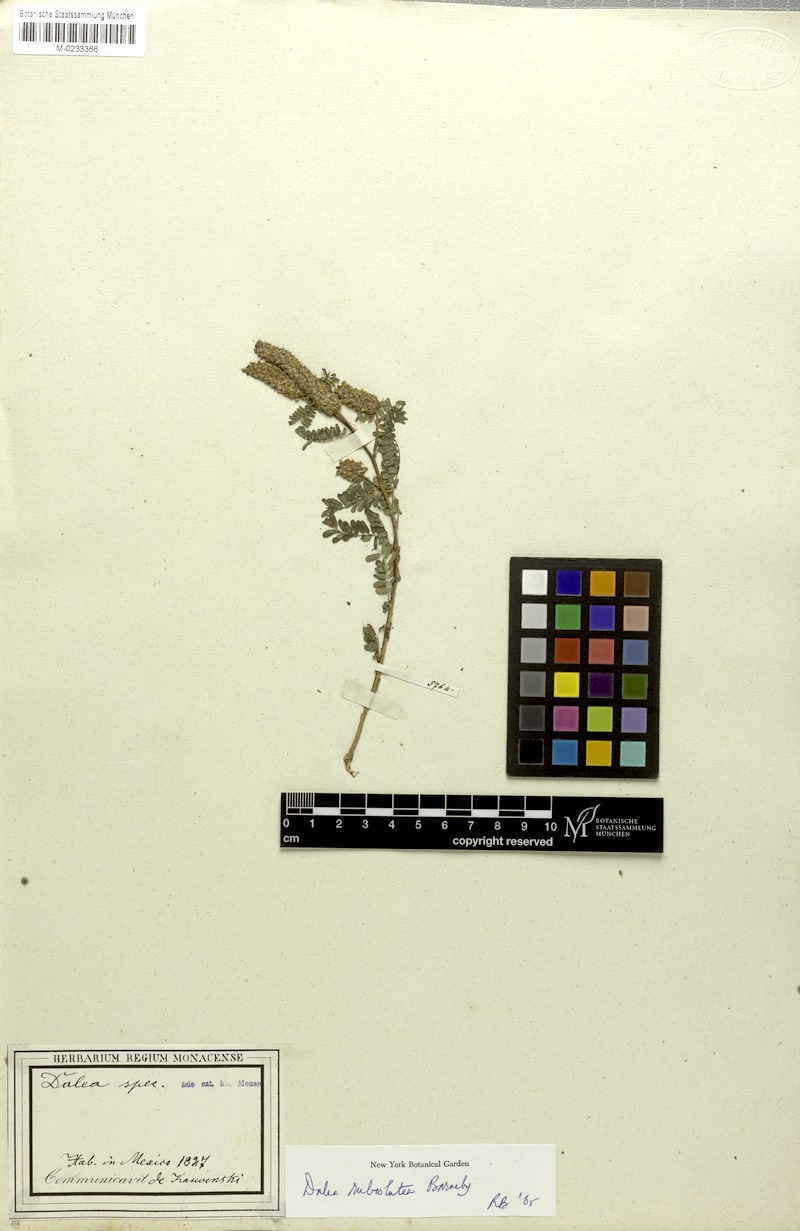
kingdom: Plantae
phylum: Tracheophyta
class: Magnoliopsida
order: Fabales
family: Fabaceae
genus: Dalea
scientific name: Dalea rubrolutea
